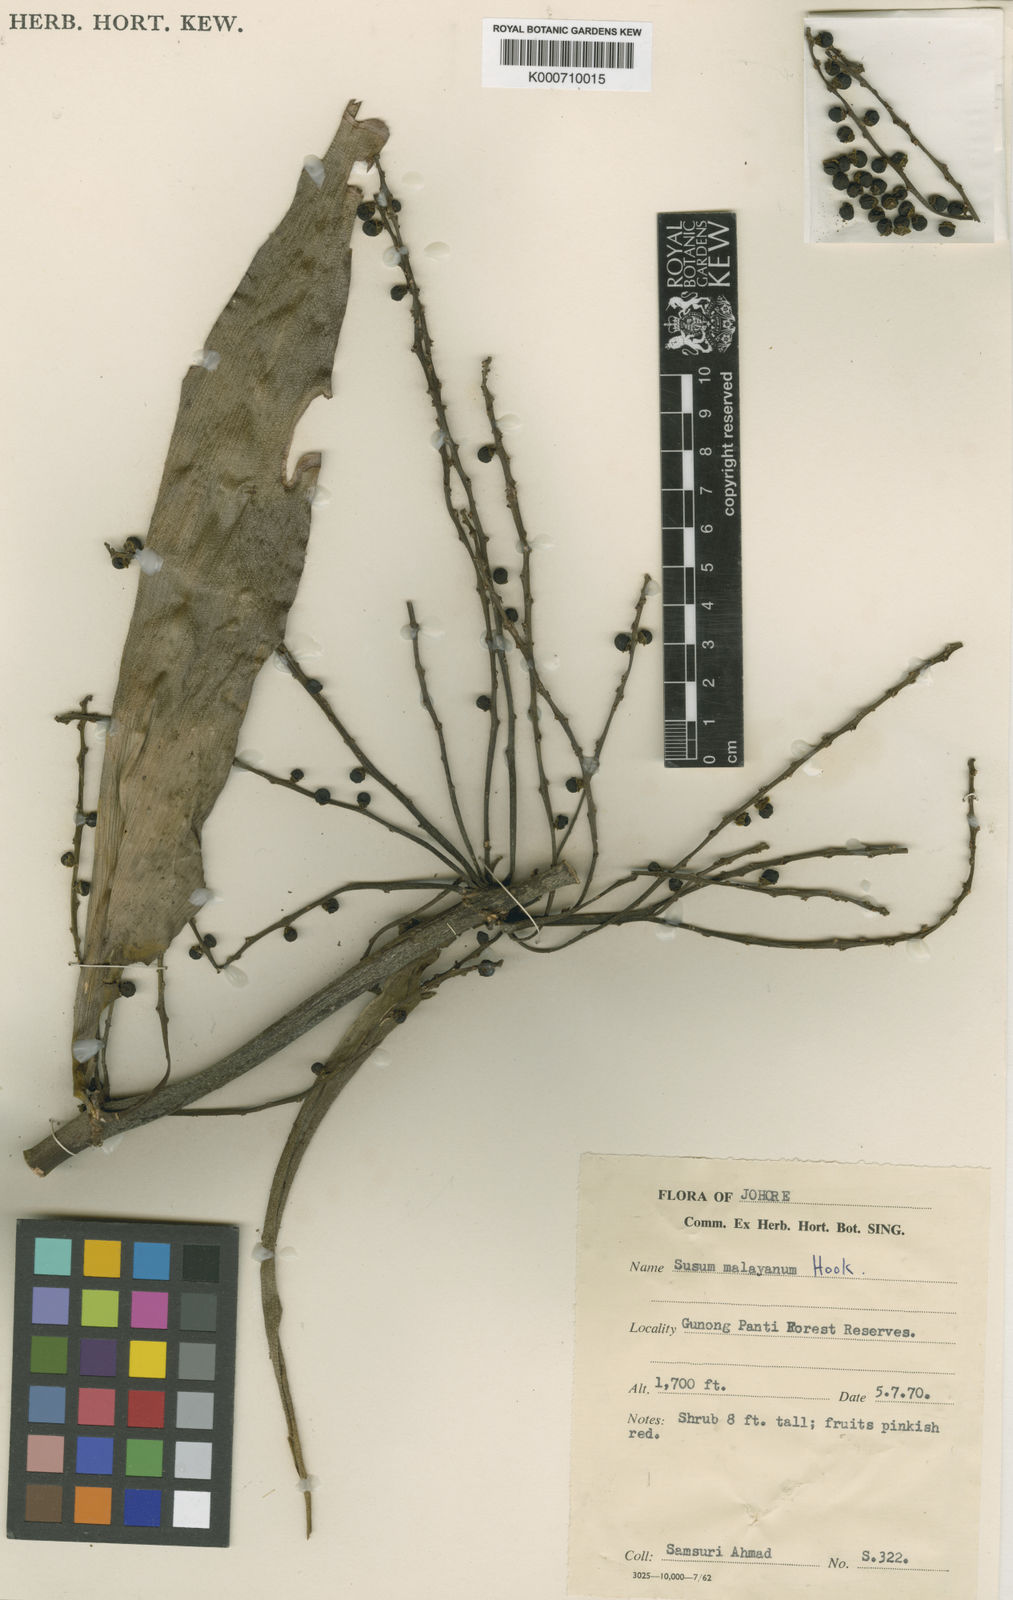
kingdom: Plantae
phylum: Tracheophyta
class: Liliopsida
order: Commelinales
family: Hanguanaceae
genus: Hanguana
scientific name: Hanguana malayana
